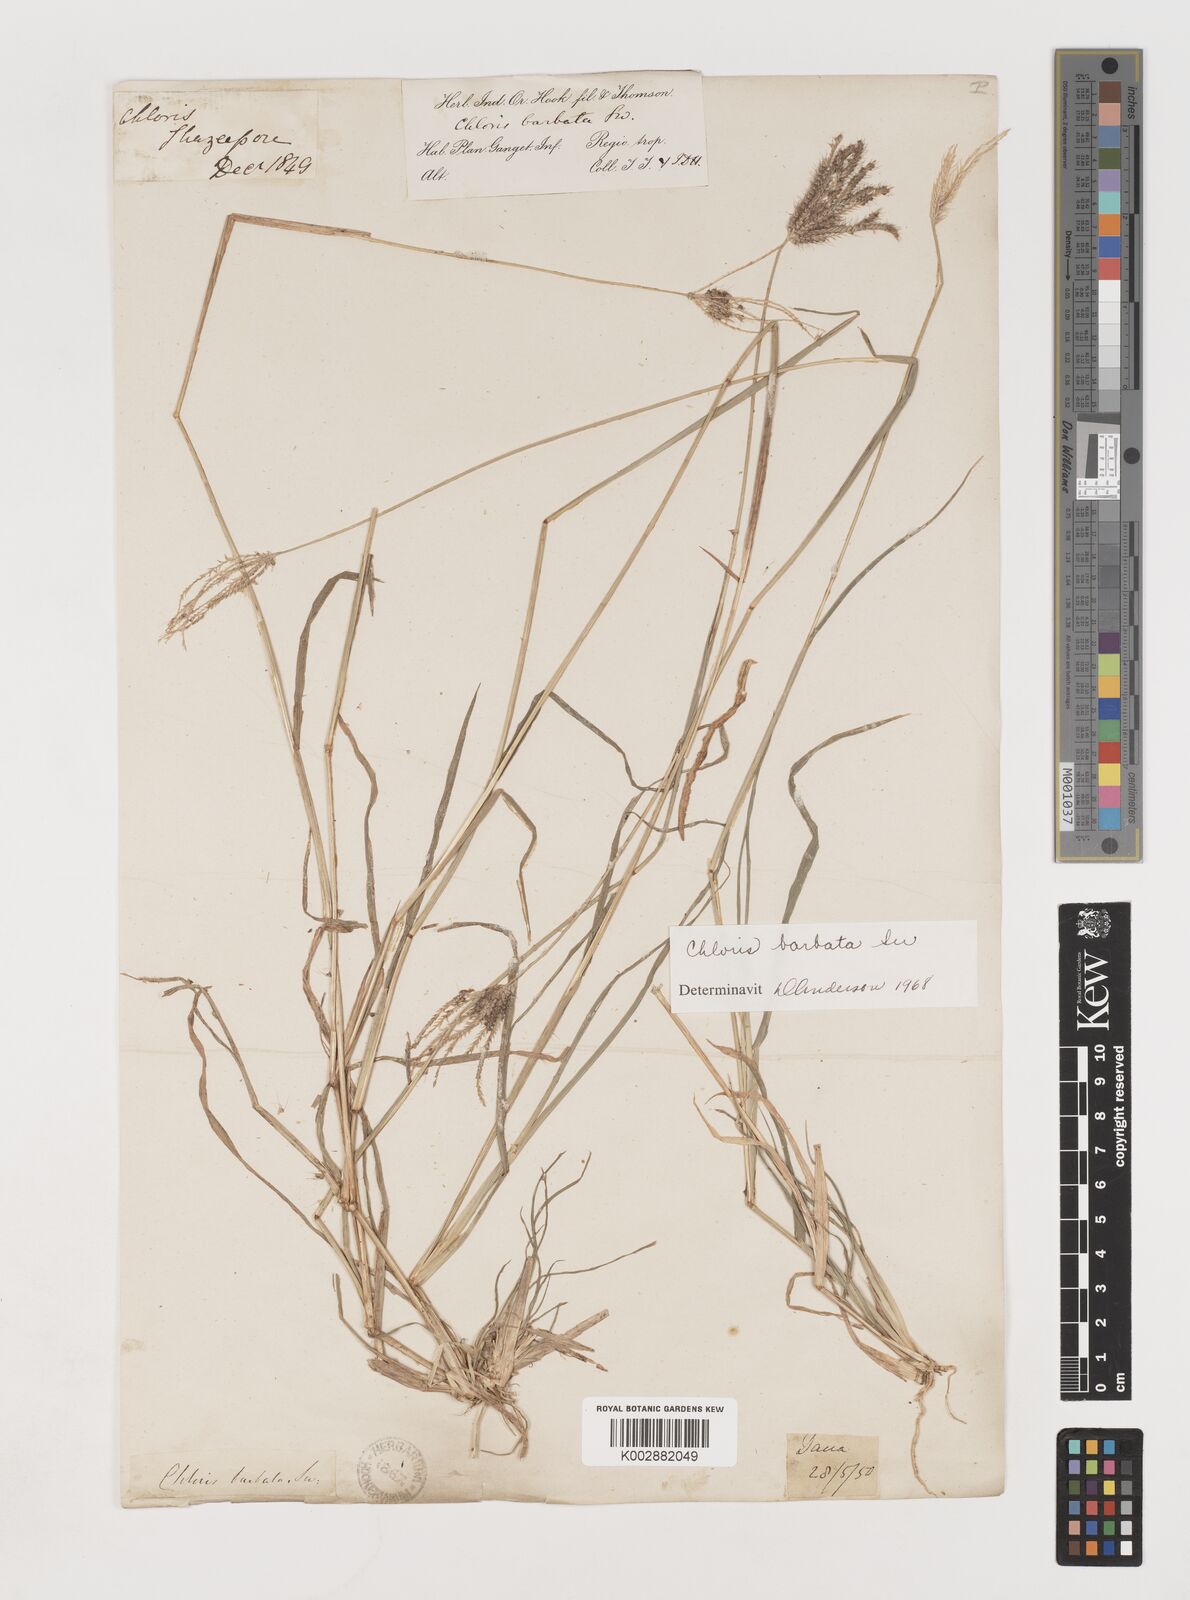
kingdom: Plantae
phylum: Tracheophyta
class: Liliopsida
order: Poales
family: Poaceae
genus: Chloris
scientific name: Chloris barbata
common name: Swollen fingergrass
